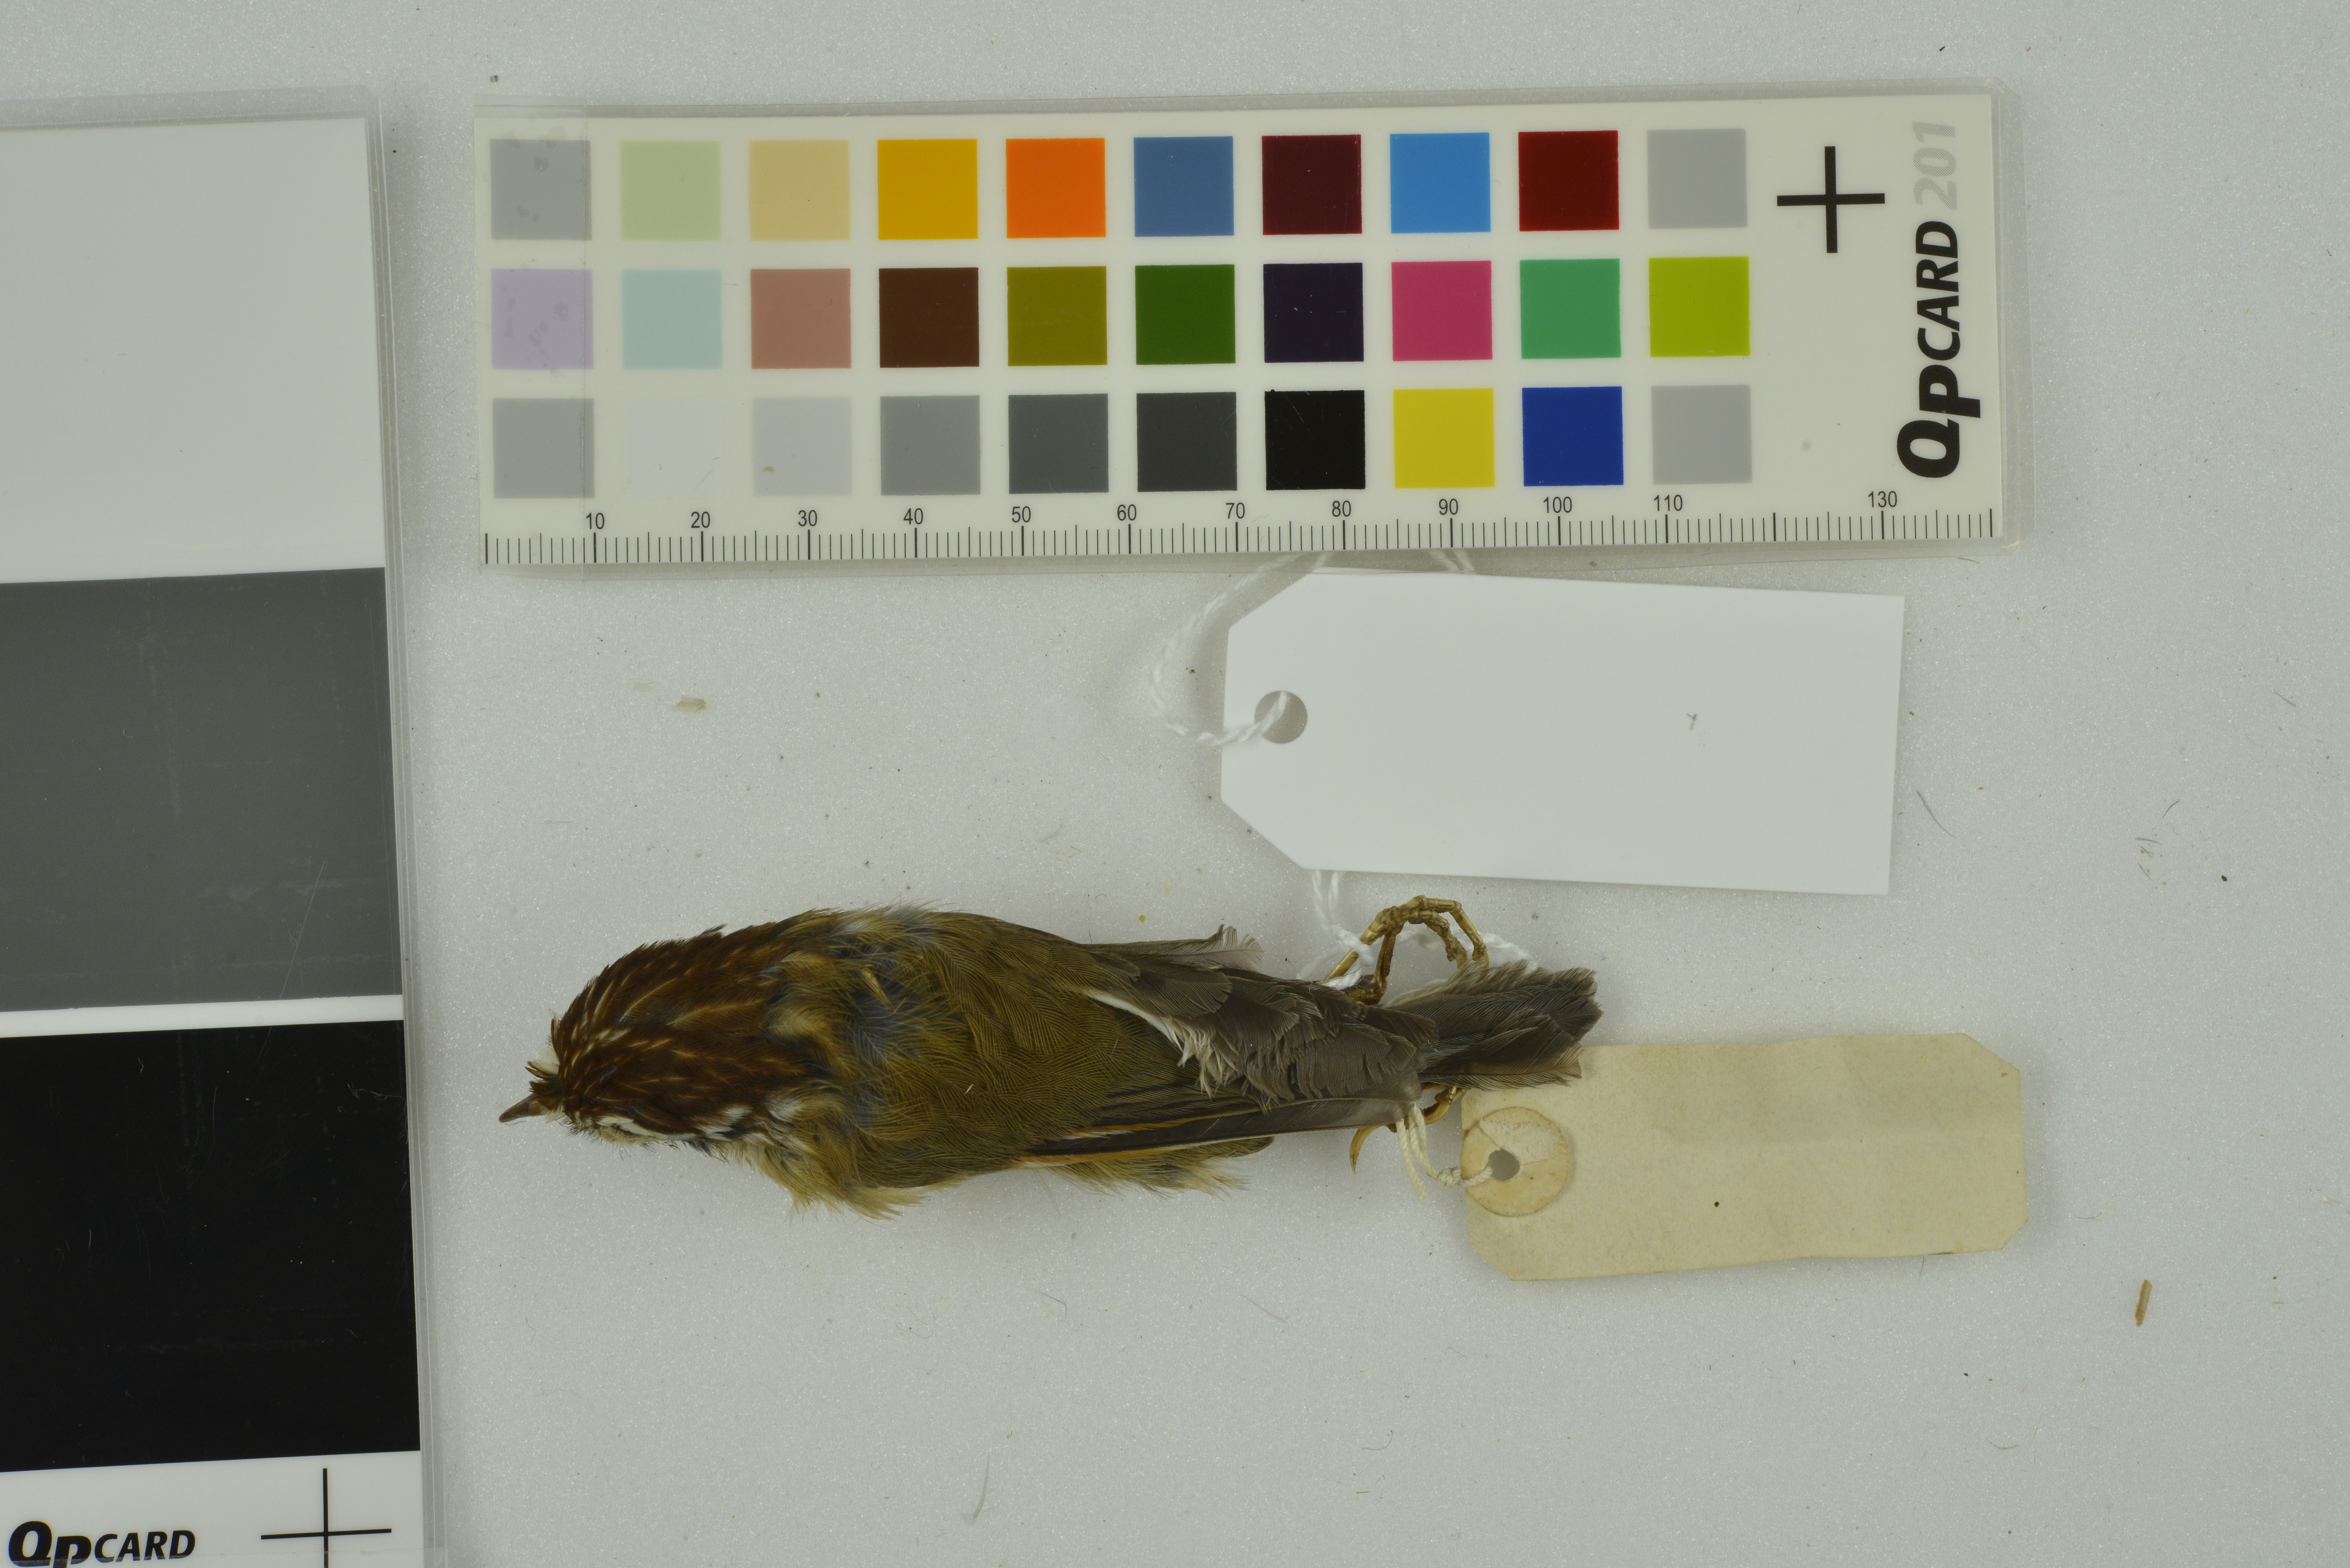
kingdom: Animalia
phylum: Chordata
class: Aves
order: Passeriformes
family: Pellorneidae
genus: Alcippe
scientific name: Alcippe castaneceps
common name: Rufous-winged fulvetta
